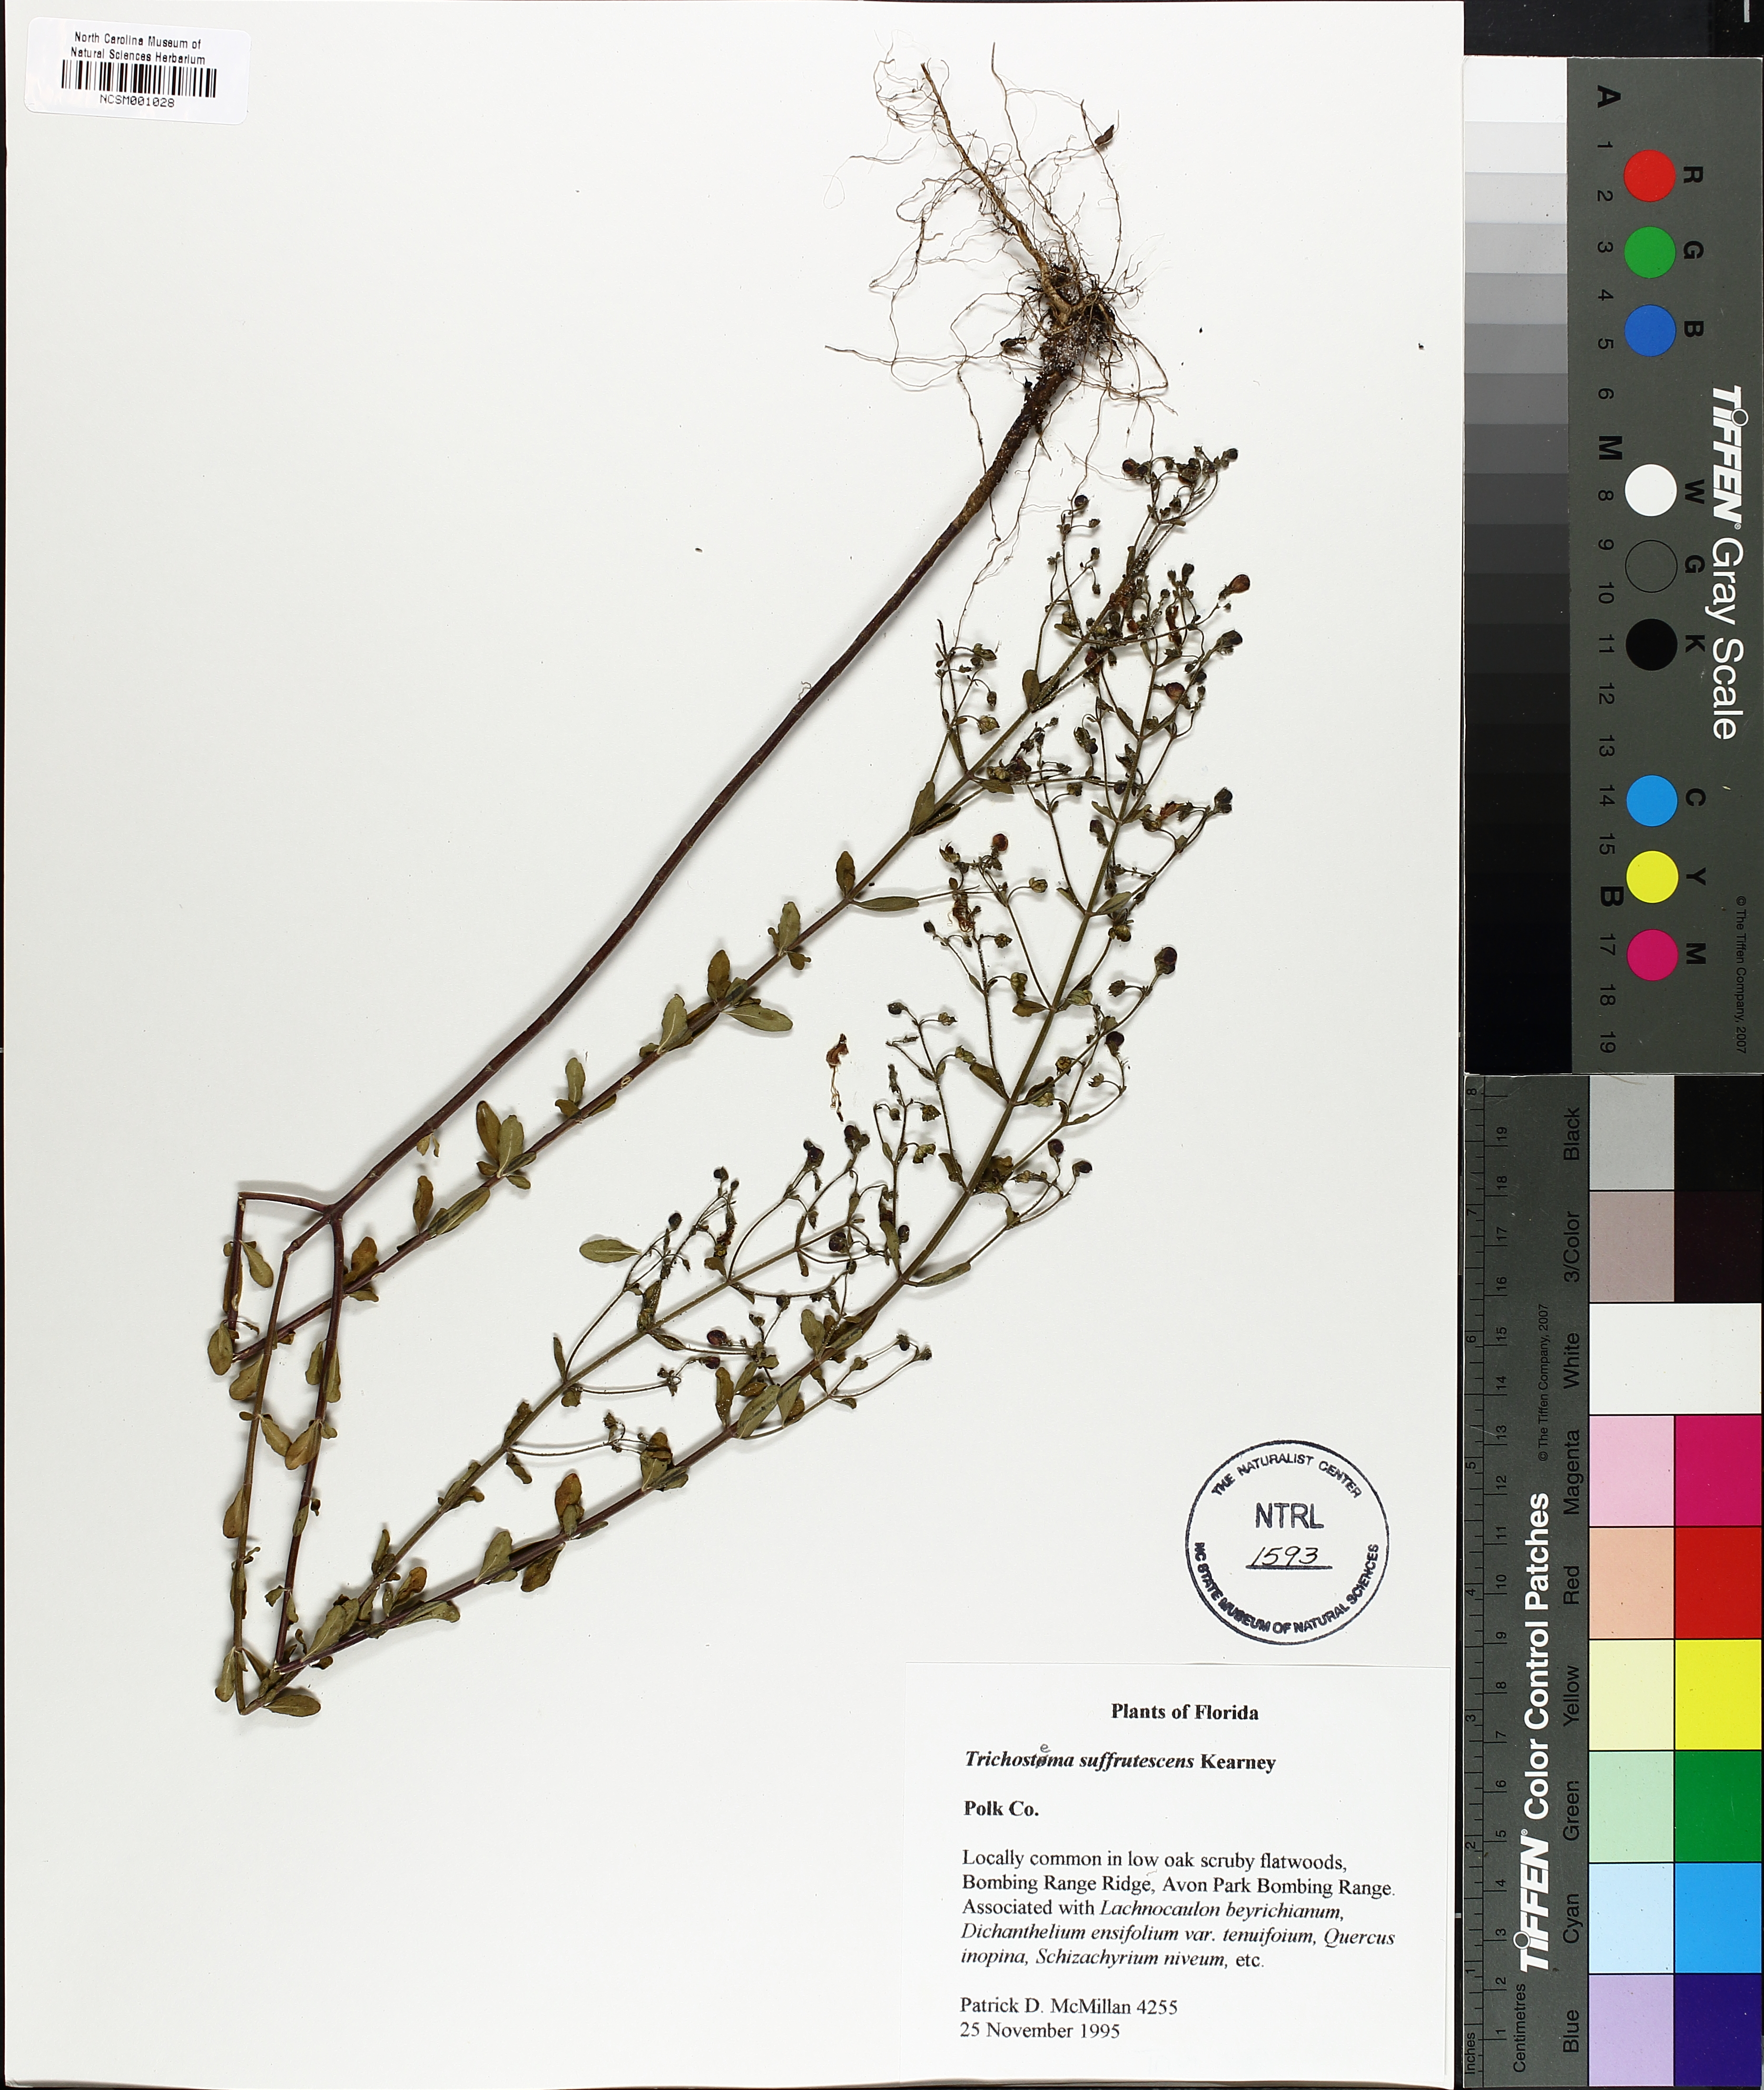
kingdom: Plantae
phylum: Tracheophyta
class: Magnoliopsida
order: Lamiales
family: Lamiaceae
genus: Trichostema
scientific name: Trichostema suffrutescens
